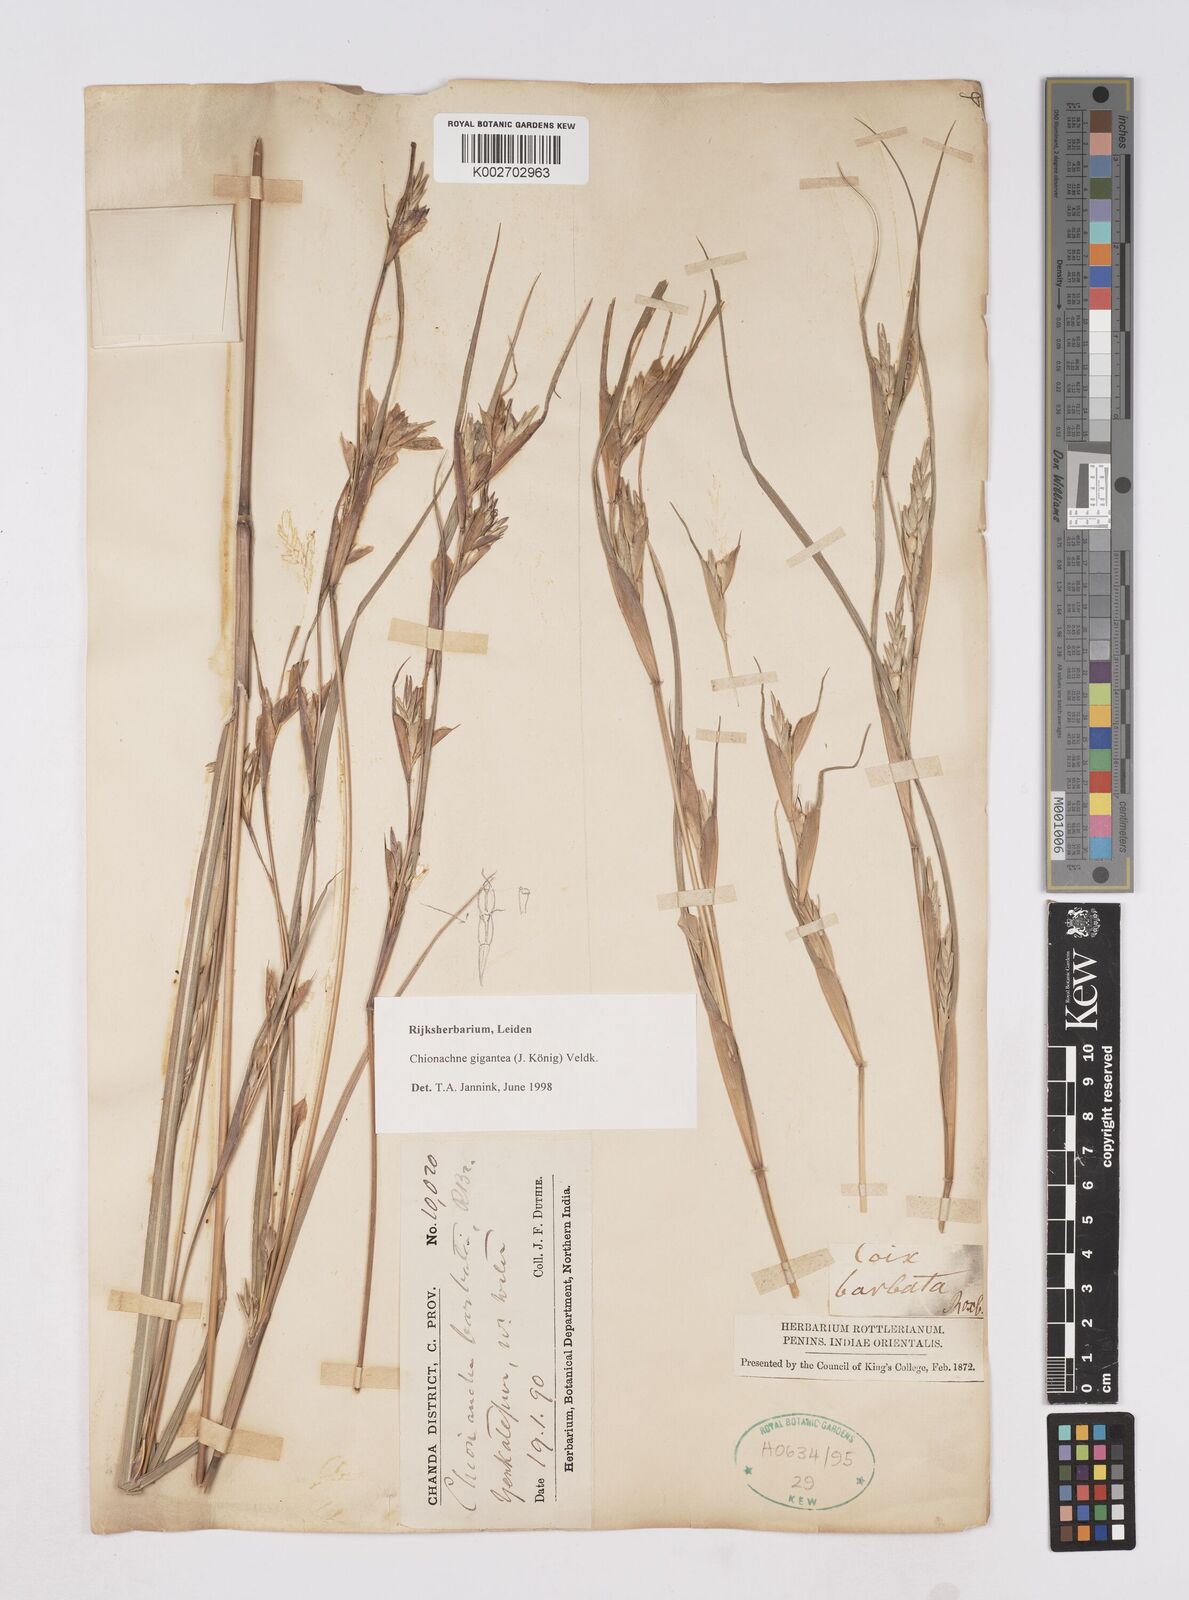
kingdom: Plantae
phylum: Tracheophyta
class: Liliopsida
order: Poales
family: Poaceae
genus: Polytoca
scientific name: Polytoca gigantea
